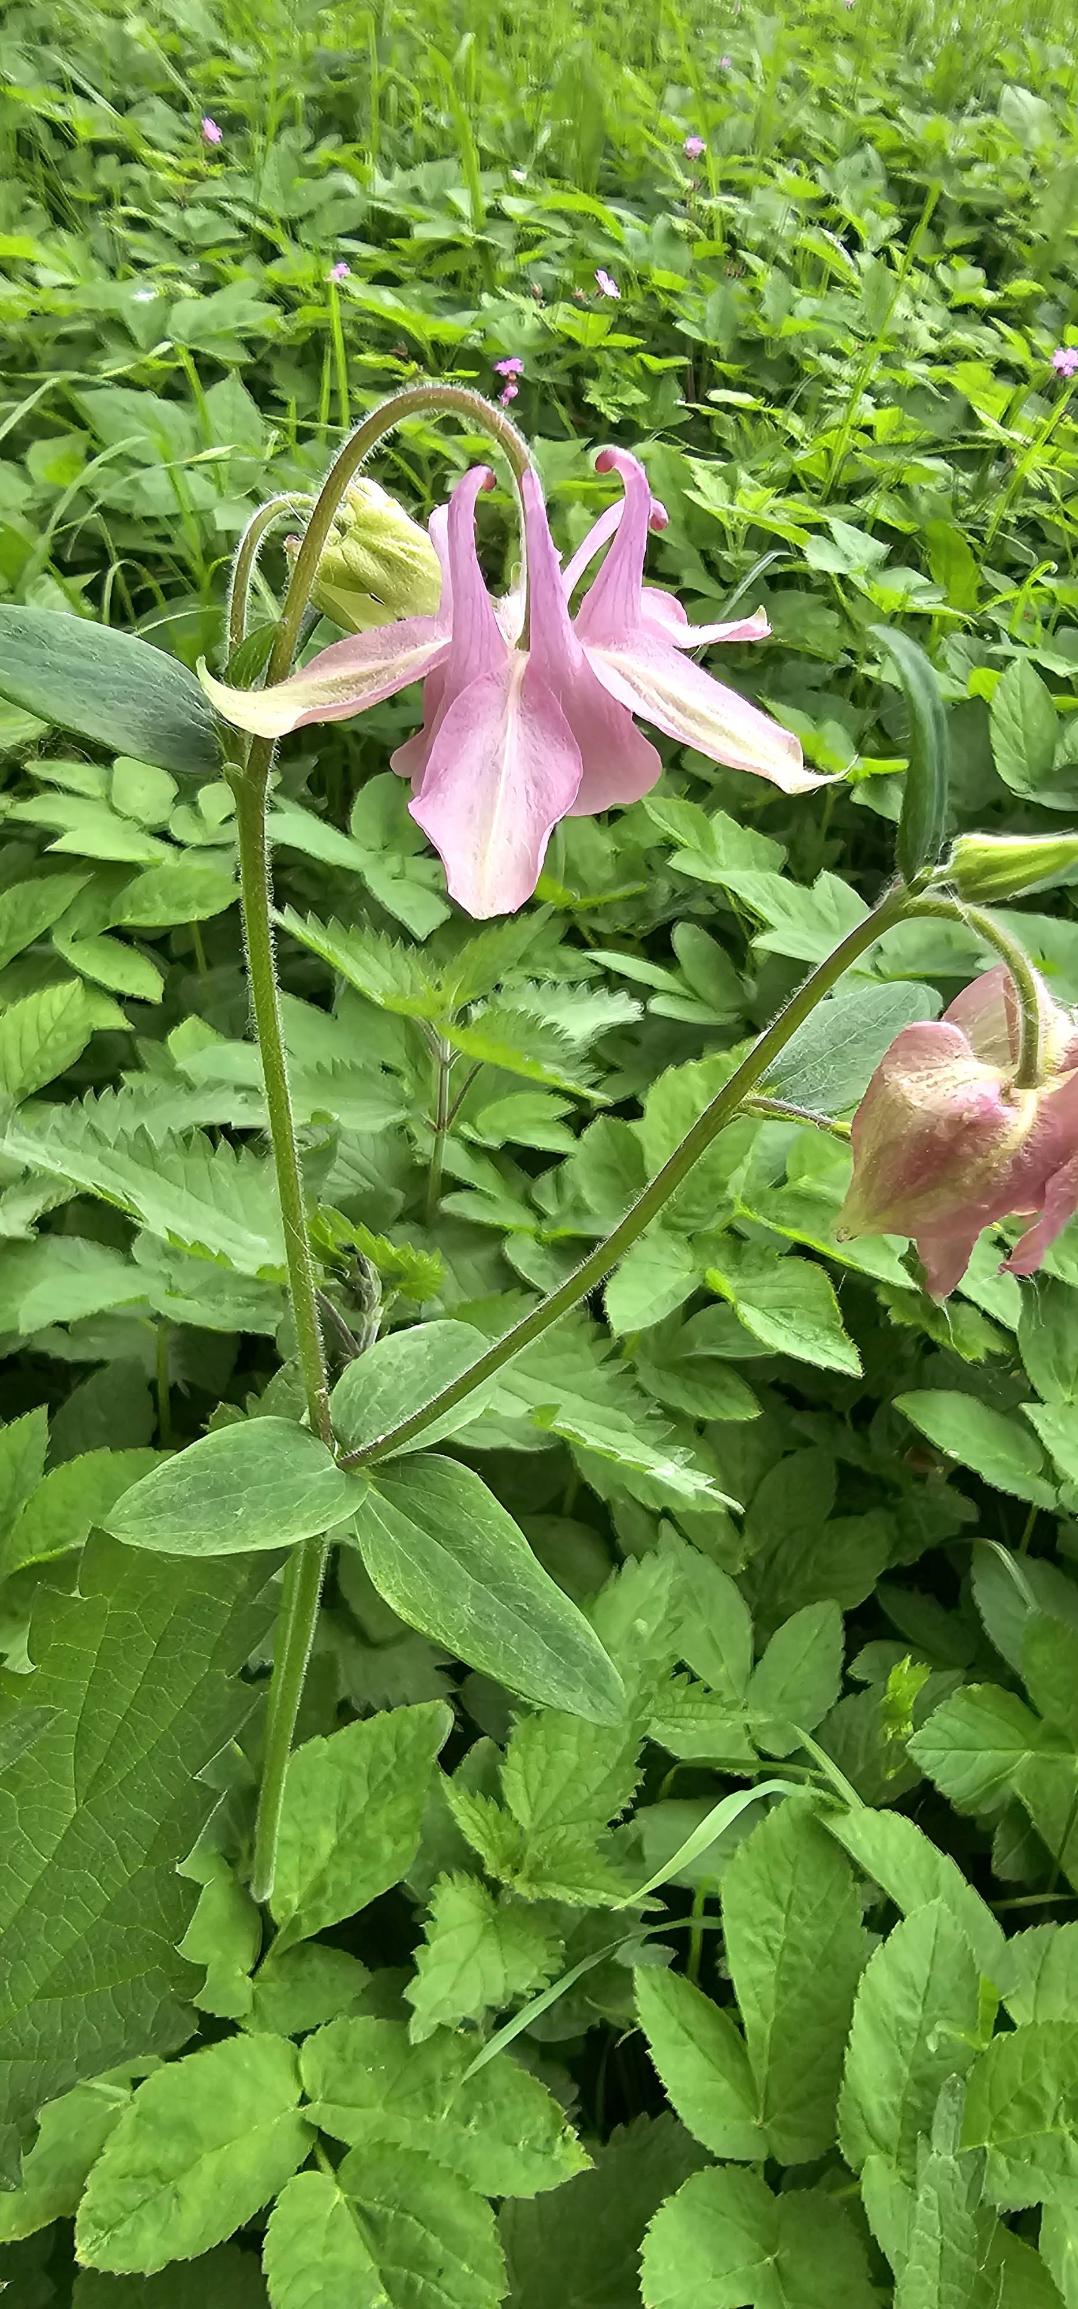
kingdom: Plantae
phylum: Tracheophyta
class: Magnoliopsida
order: Ranunculales
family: Ranunculaceae
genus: Aquilegia
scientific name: Aquilegia vulgaris
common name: Akeleje
